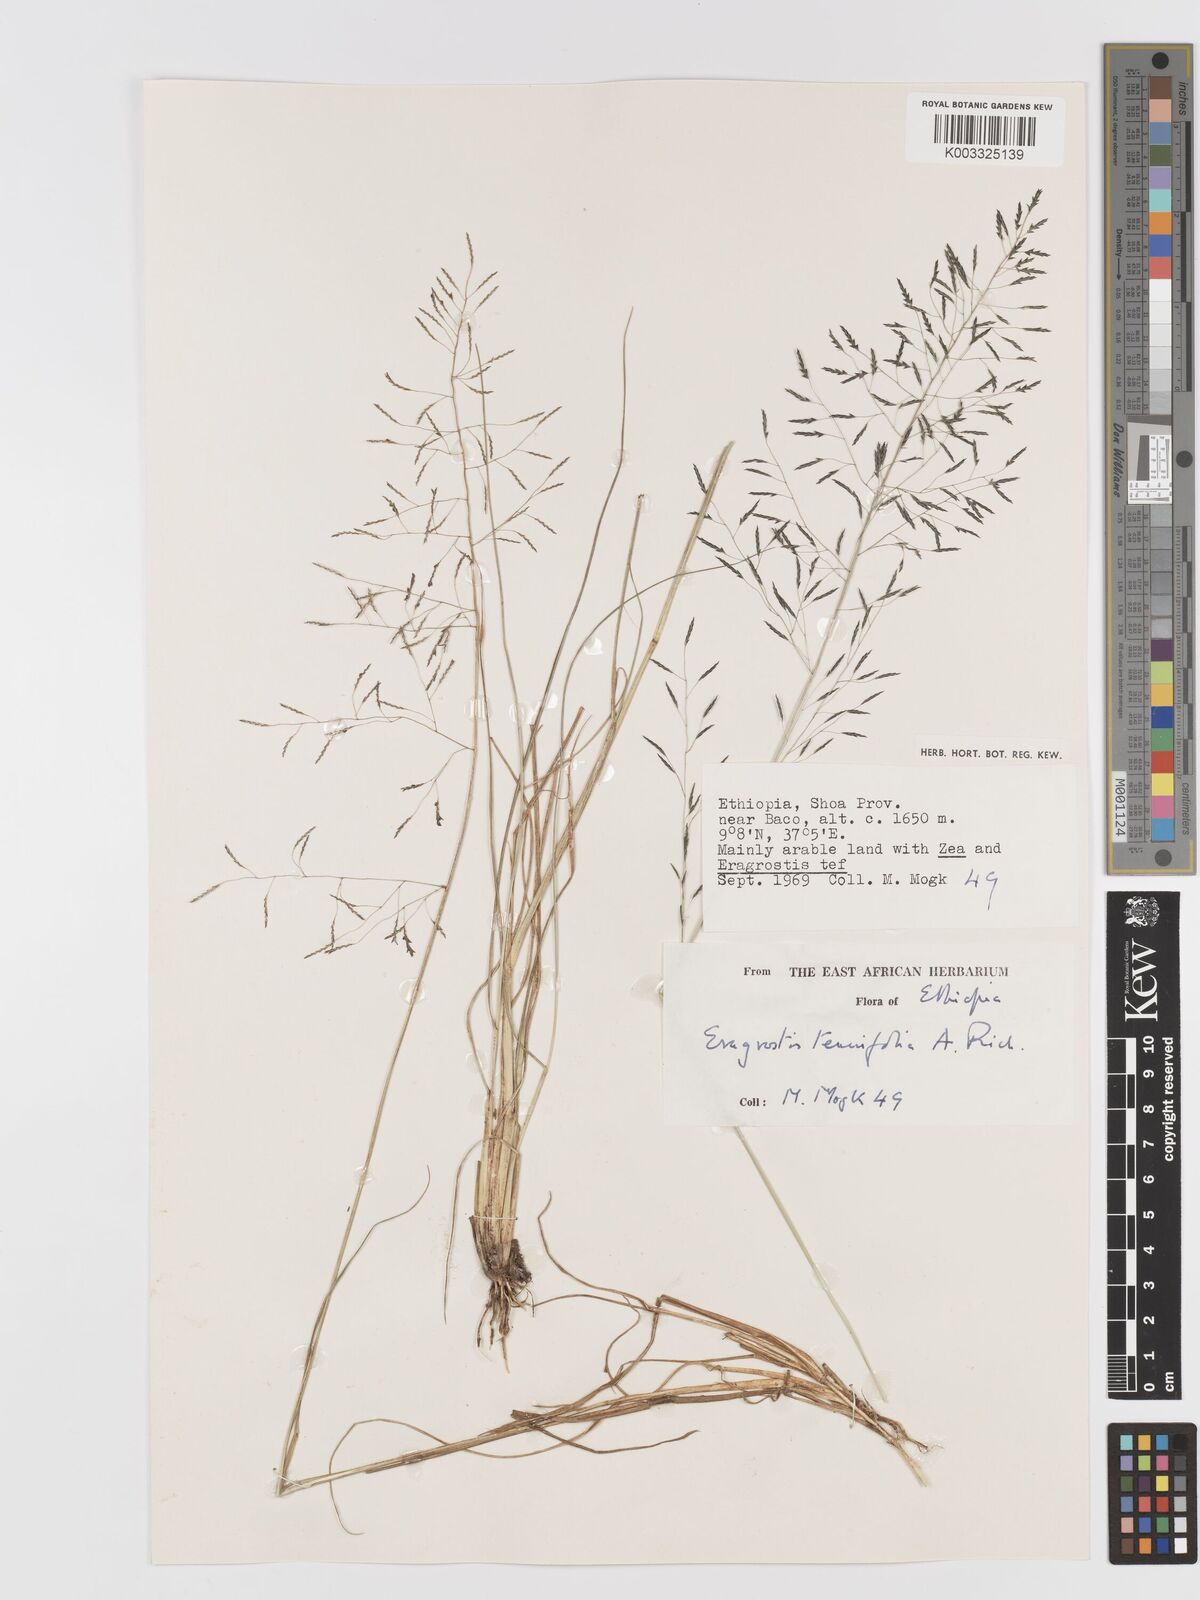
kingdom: Plantae
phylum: Tracheophyta
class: Liliopsida
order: Poales
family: Poaceae
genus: Eragrostis
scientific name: Eragrostis tenuifolia
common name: Elastic grass
